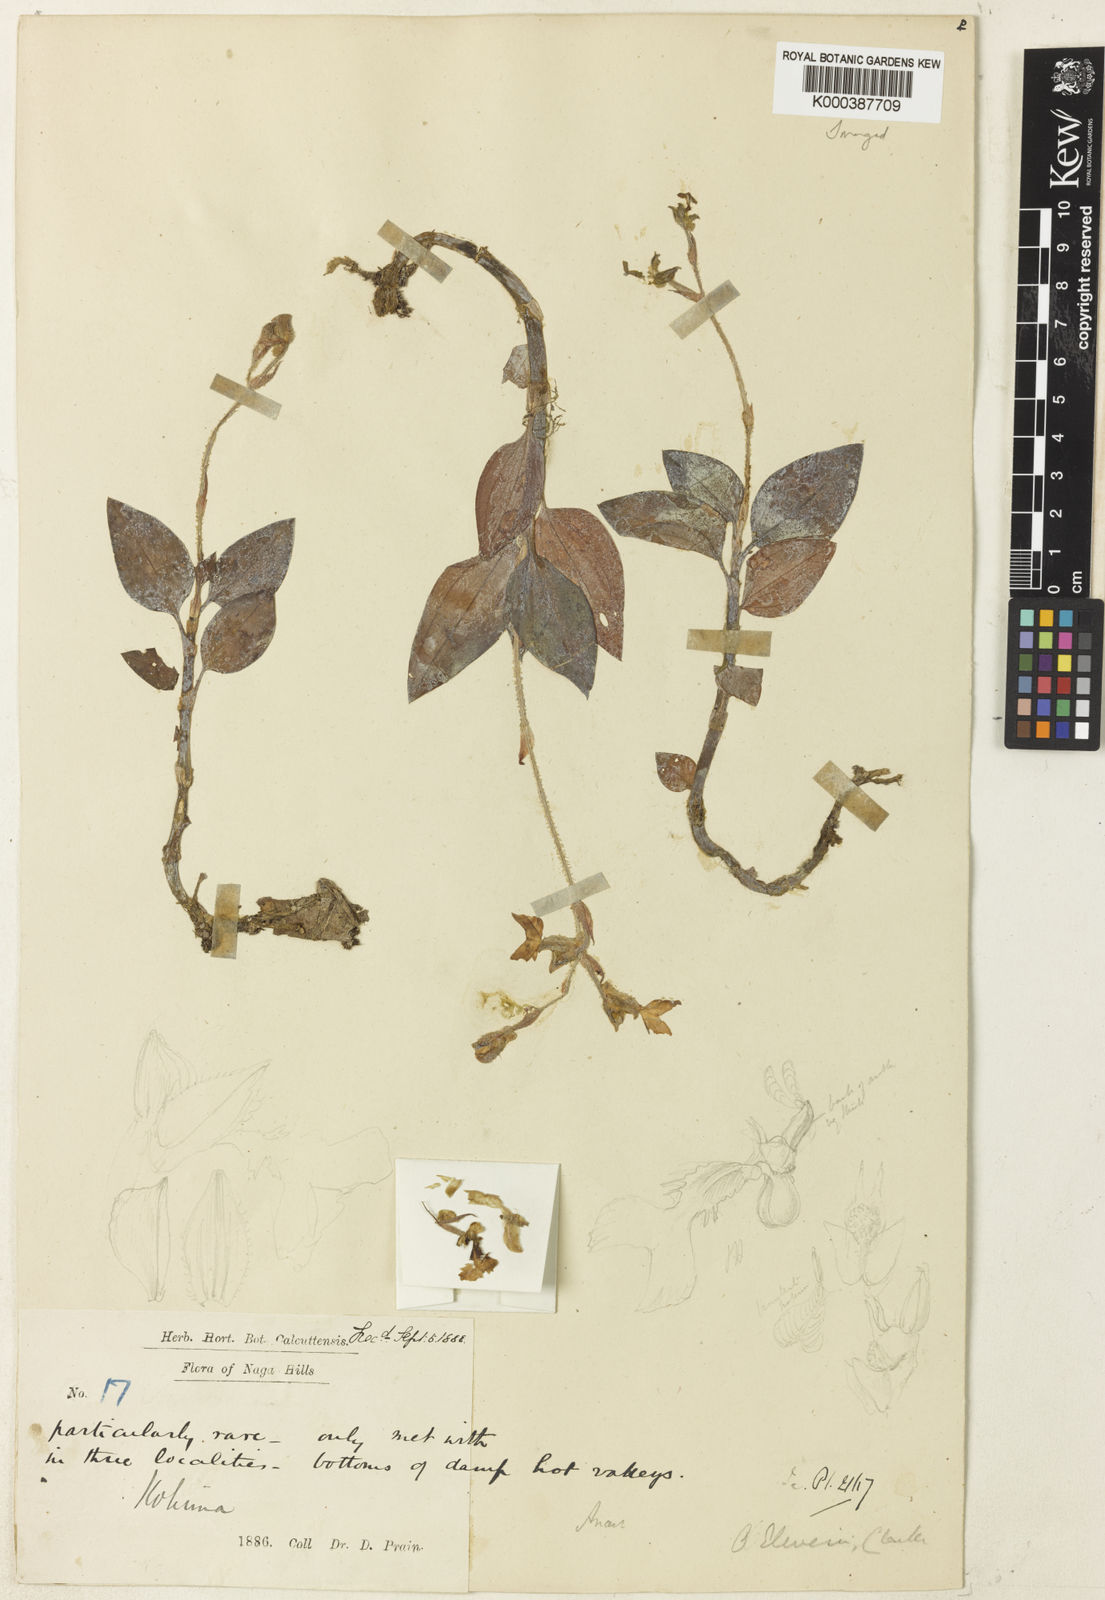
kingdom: Plantae
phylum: Tracheophyta
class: Liliopsida
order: Asparagales
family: Orchidaceae
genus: Odontochilus
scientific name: Odontochilus elwesii
